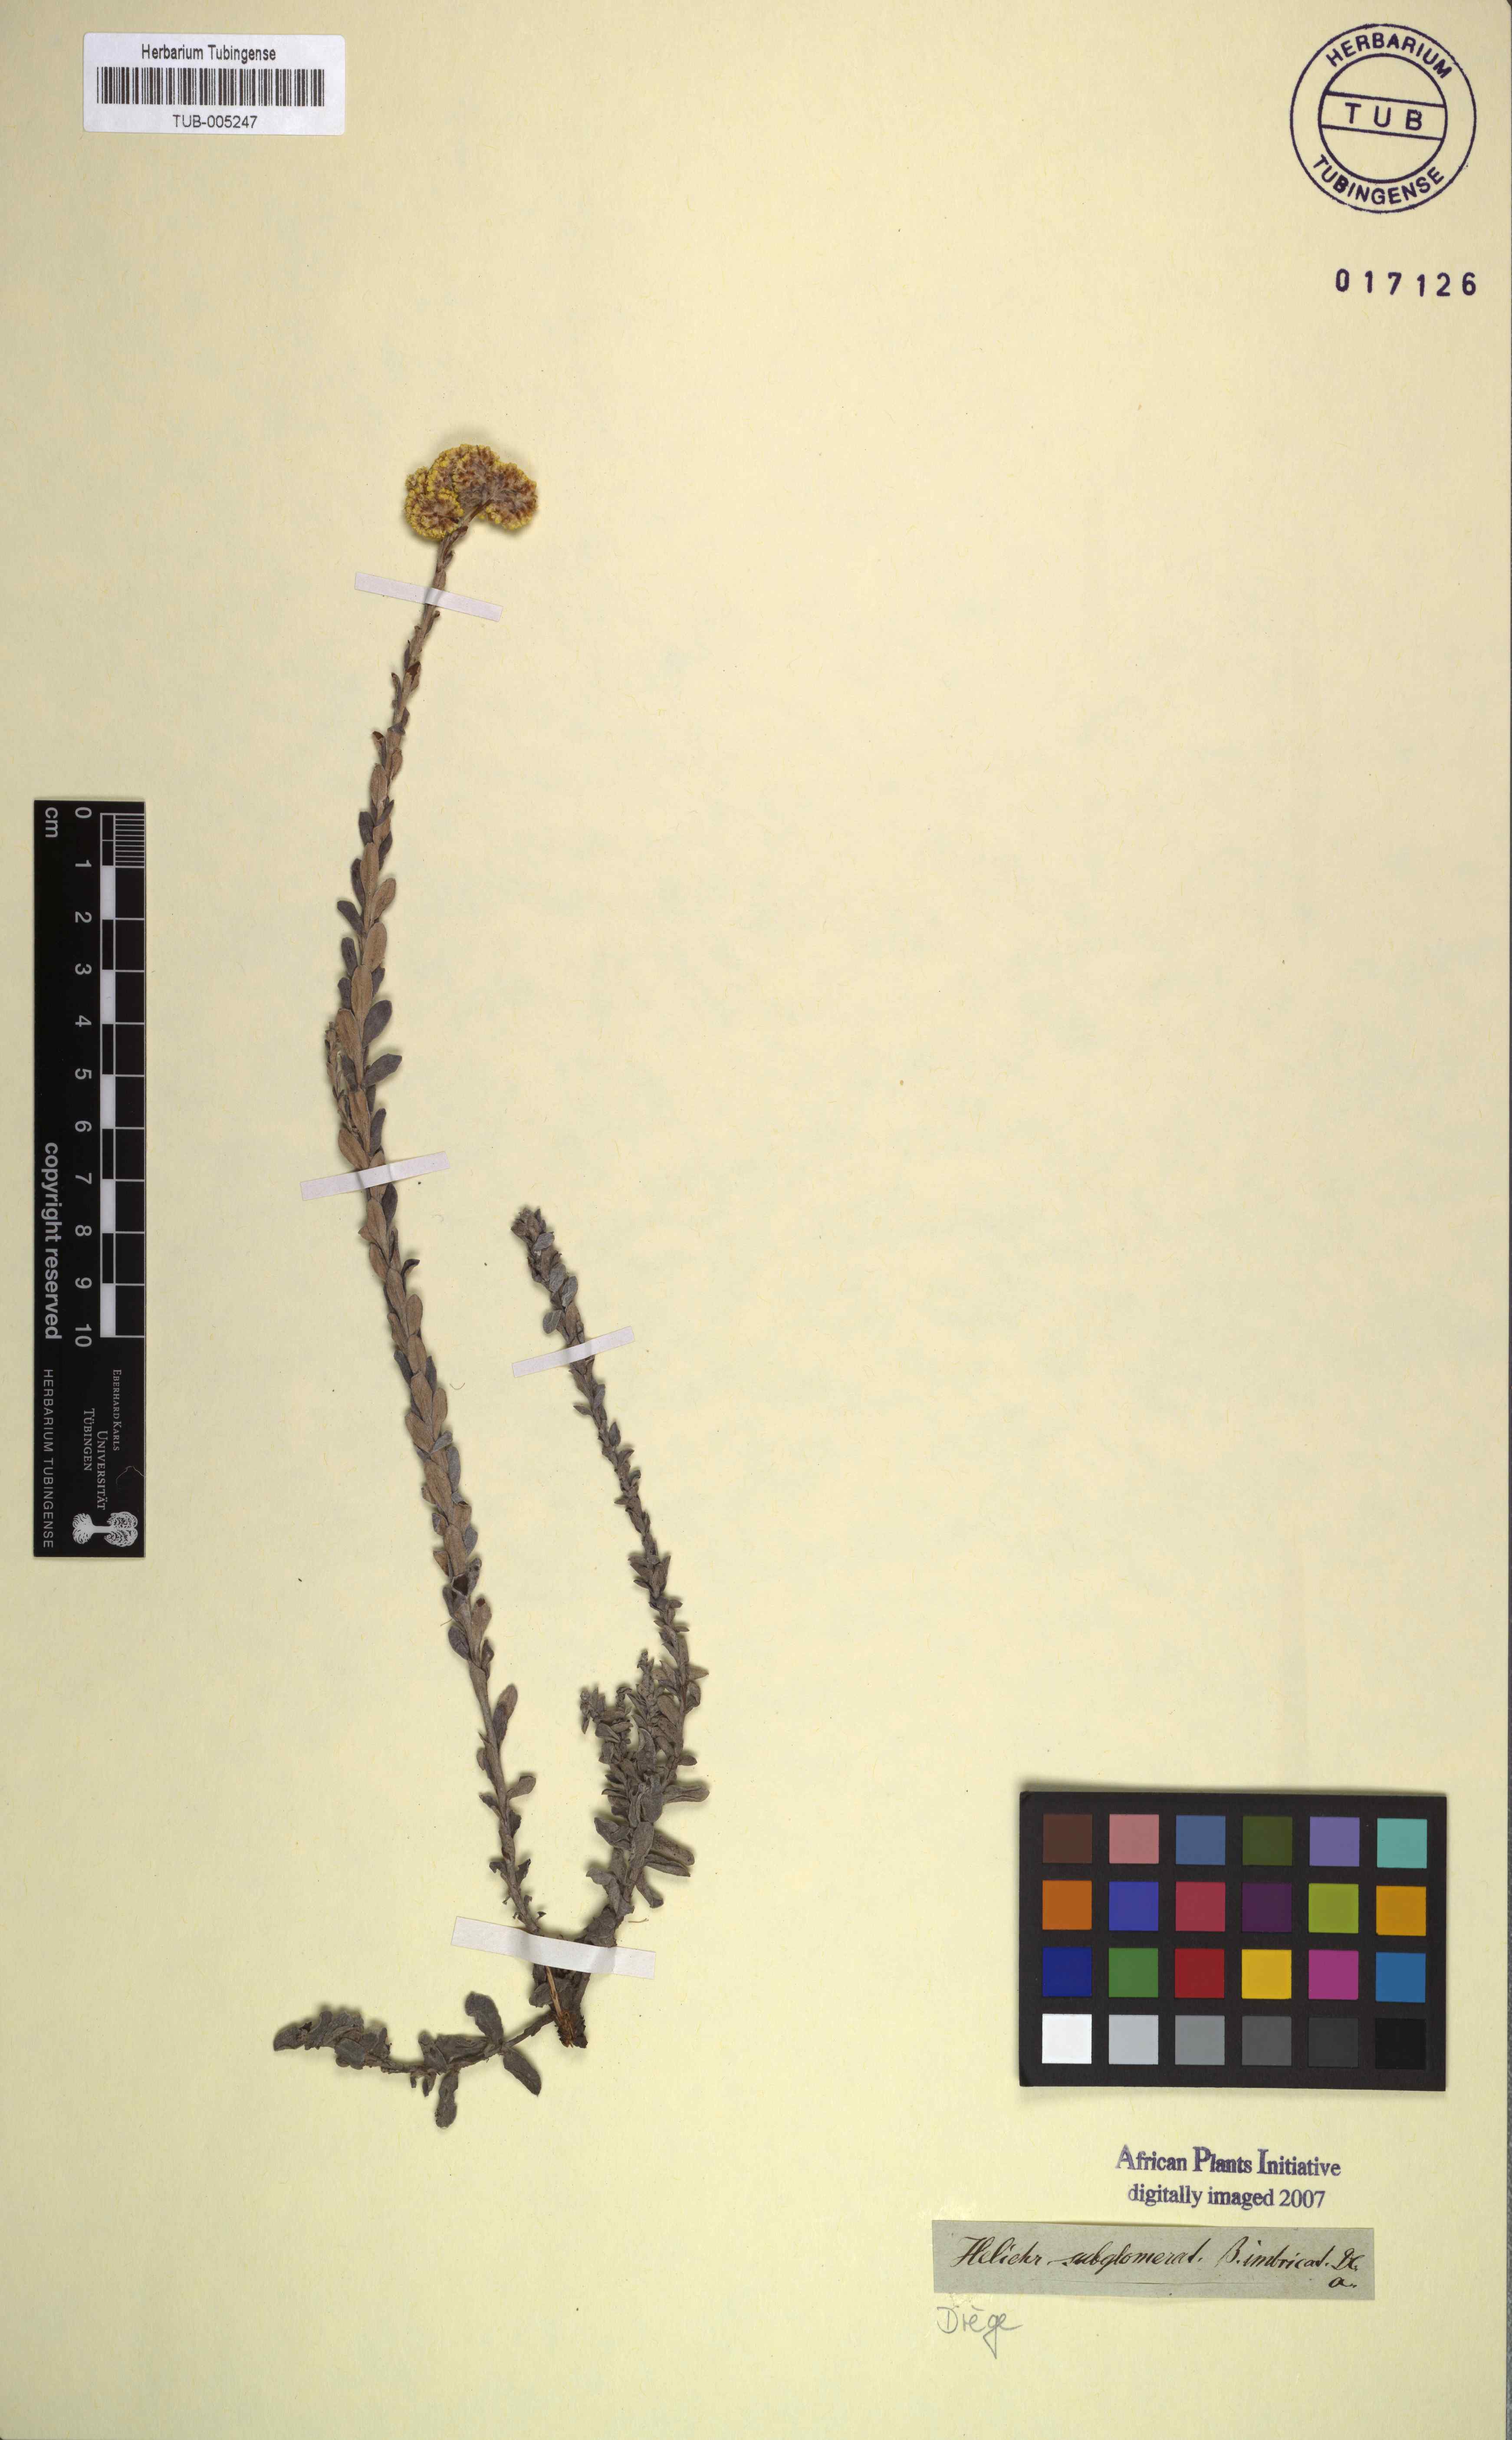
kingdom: Plantae
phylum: Tracheophyta
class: Magnoliopsida
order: Asterales
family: Asteraceae
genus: Helichrysum
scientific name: Helichrysum subglomeratum
